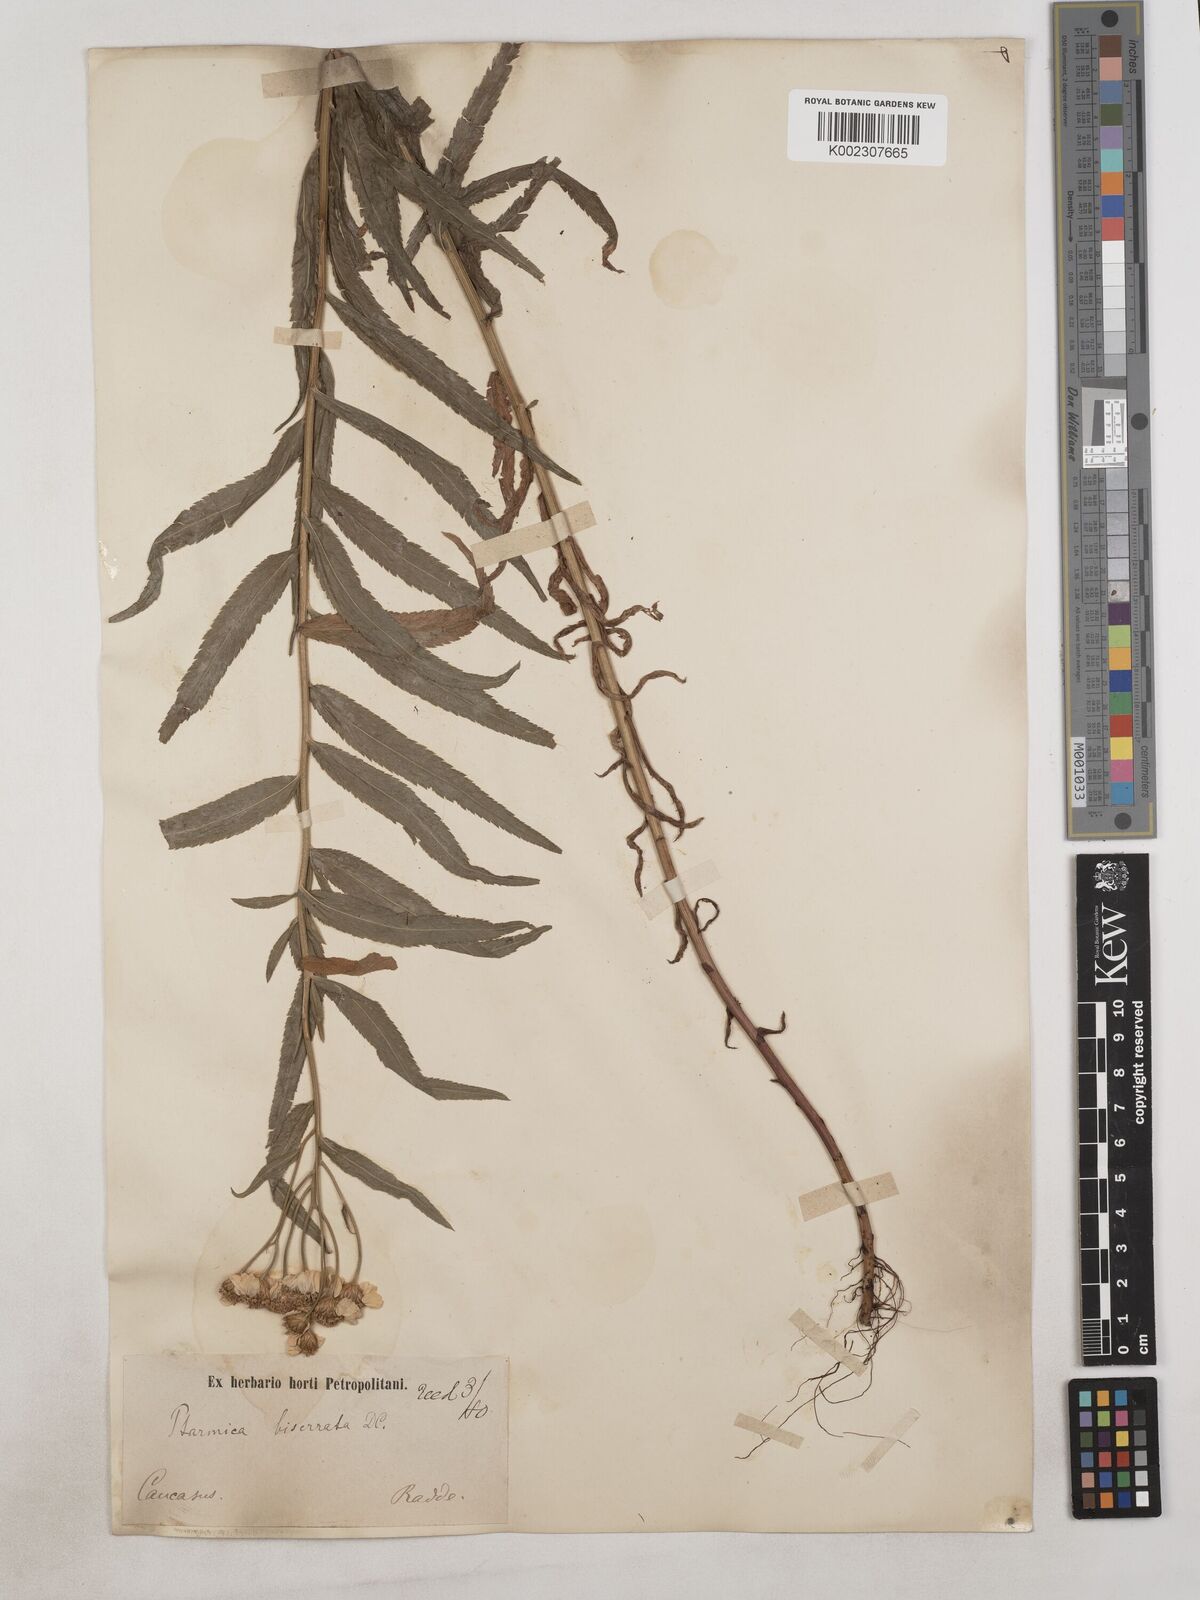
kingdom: Plantae
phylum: Tracheophyta
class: Magnoliopsida
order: Asterales
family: Asteraceae
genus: Achillea
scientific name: Achillea biserrata
